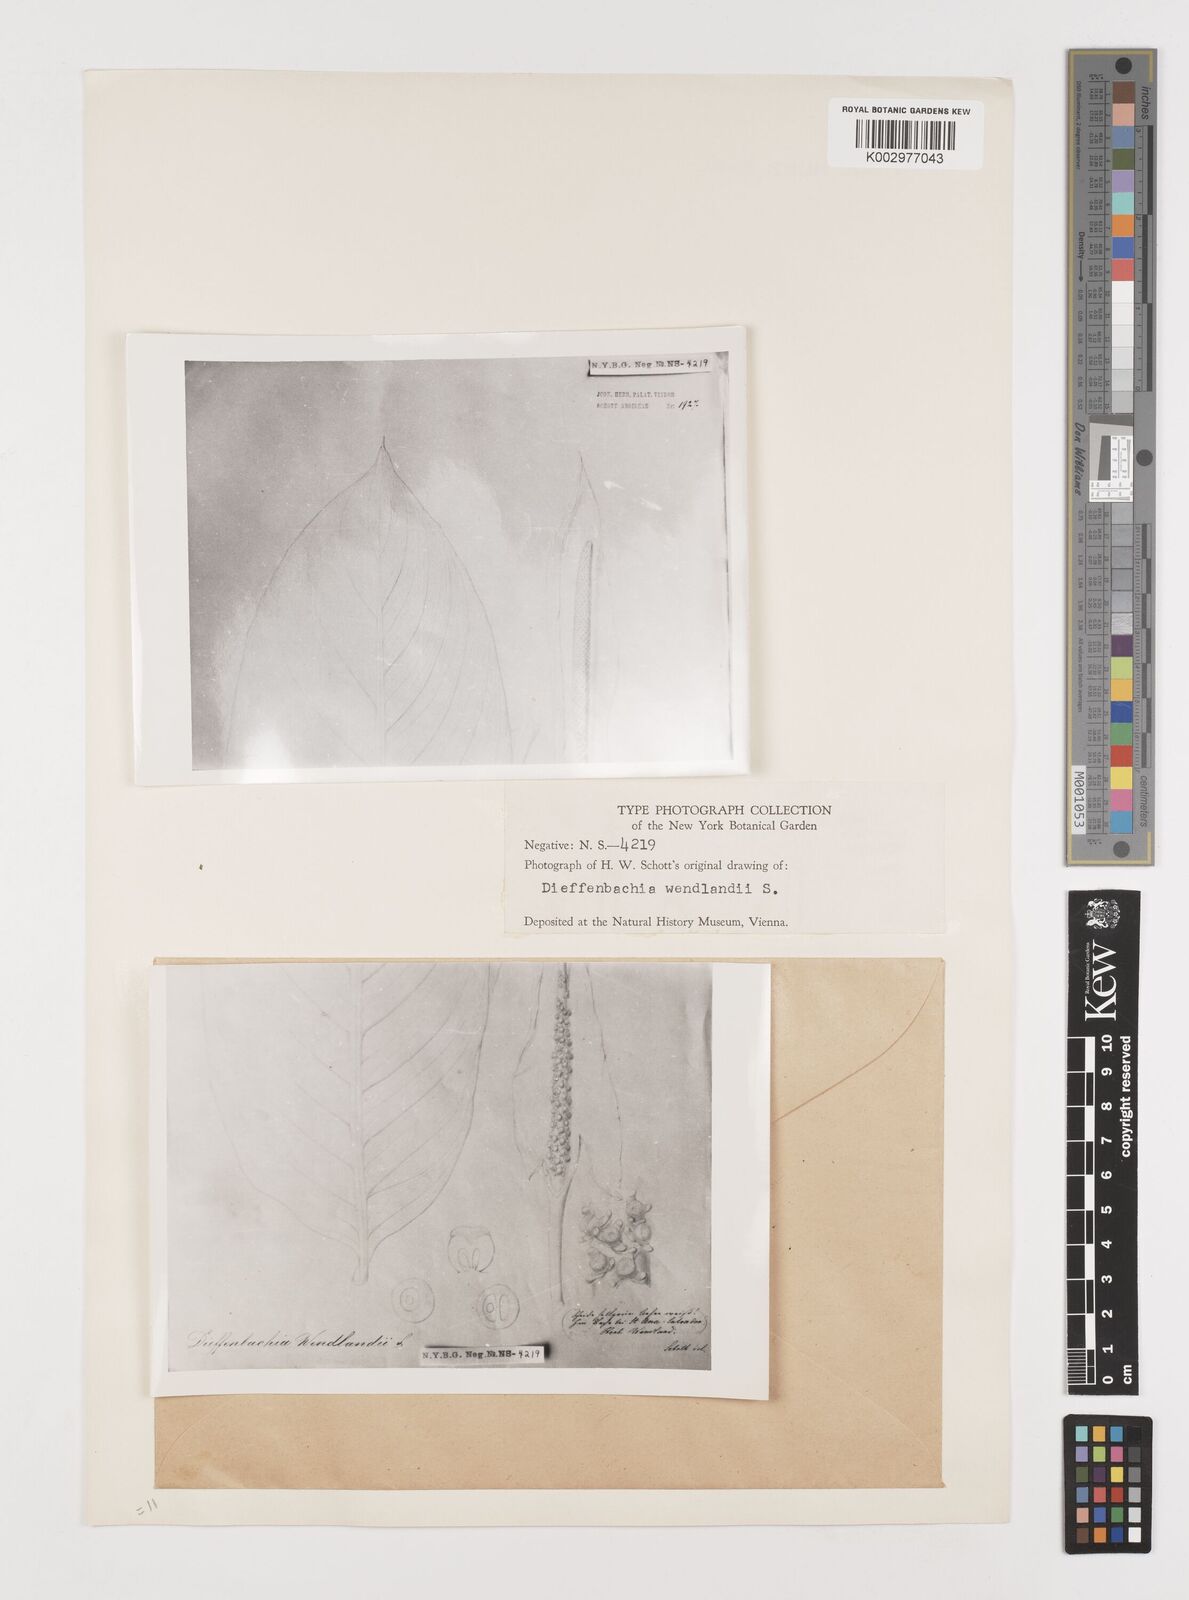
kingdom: Plantae
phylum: Tracheophyta
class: Liliopsida
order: Alismatales
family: Araceae
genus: Dieffenbachia
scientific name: Dieffenbachia seguine
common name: Dumbcane
